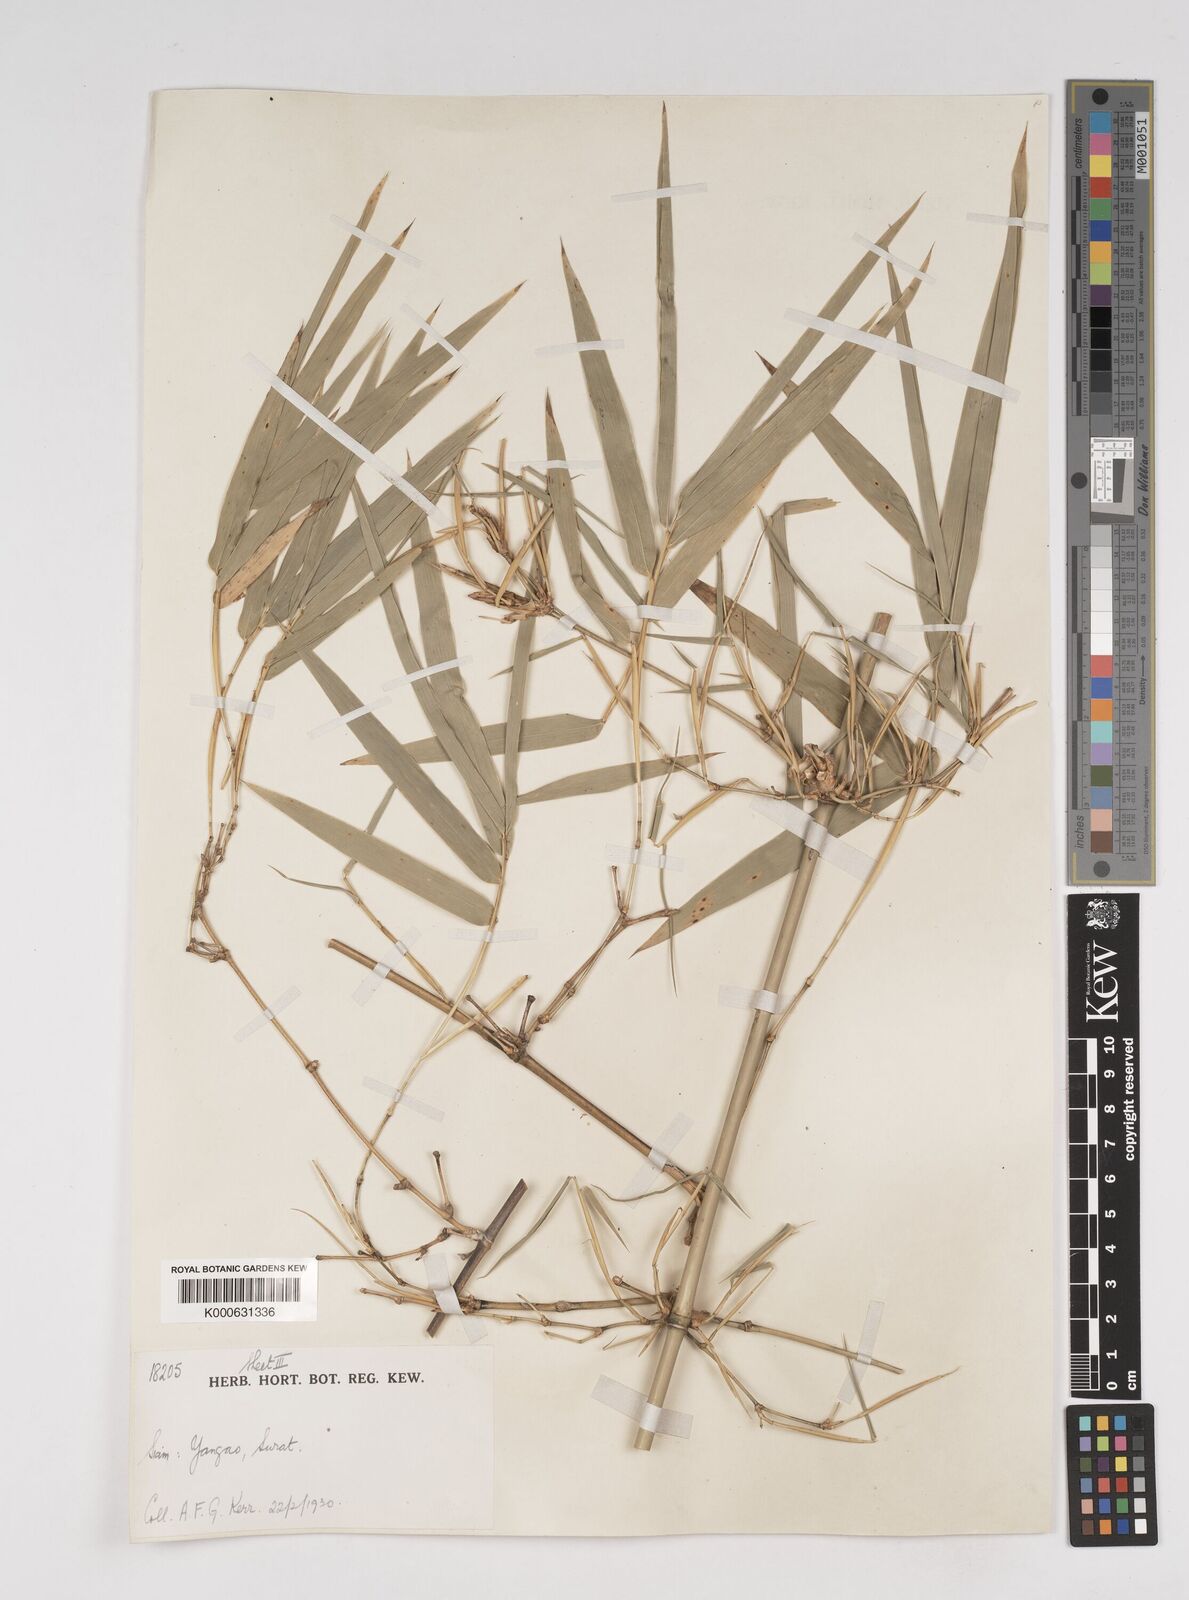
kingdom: Plantae
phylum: Tracheophyta
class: Liliopsida
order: Poales
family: Poaceae
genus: Dendrocalamus
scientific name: Dendrocalamus dumosus
